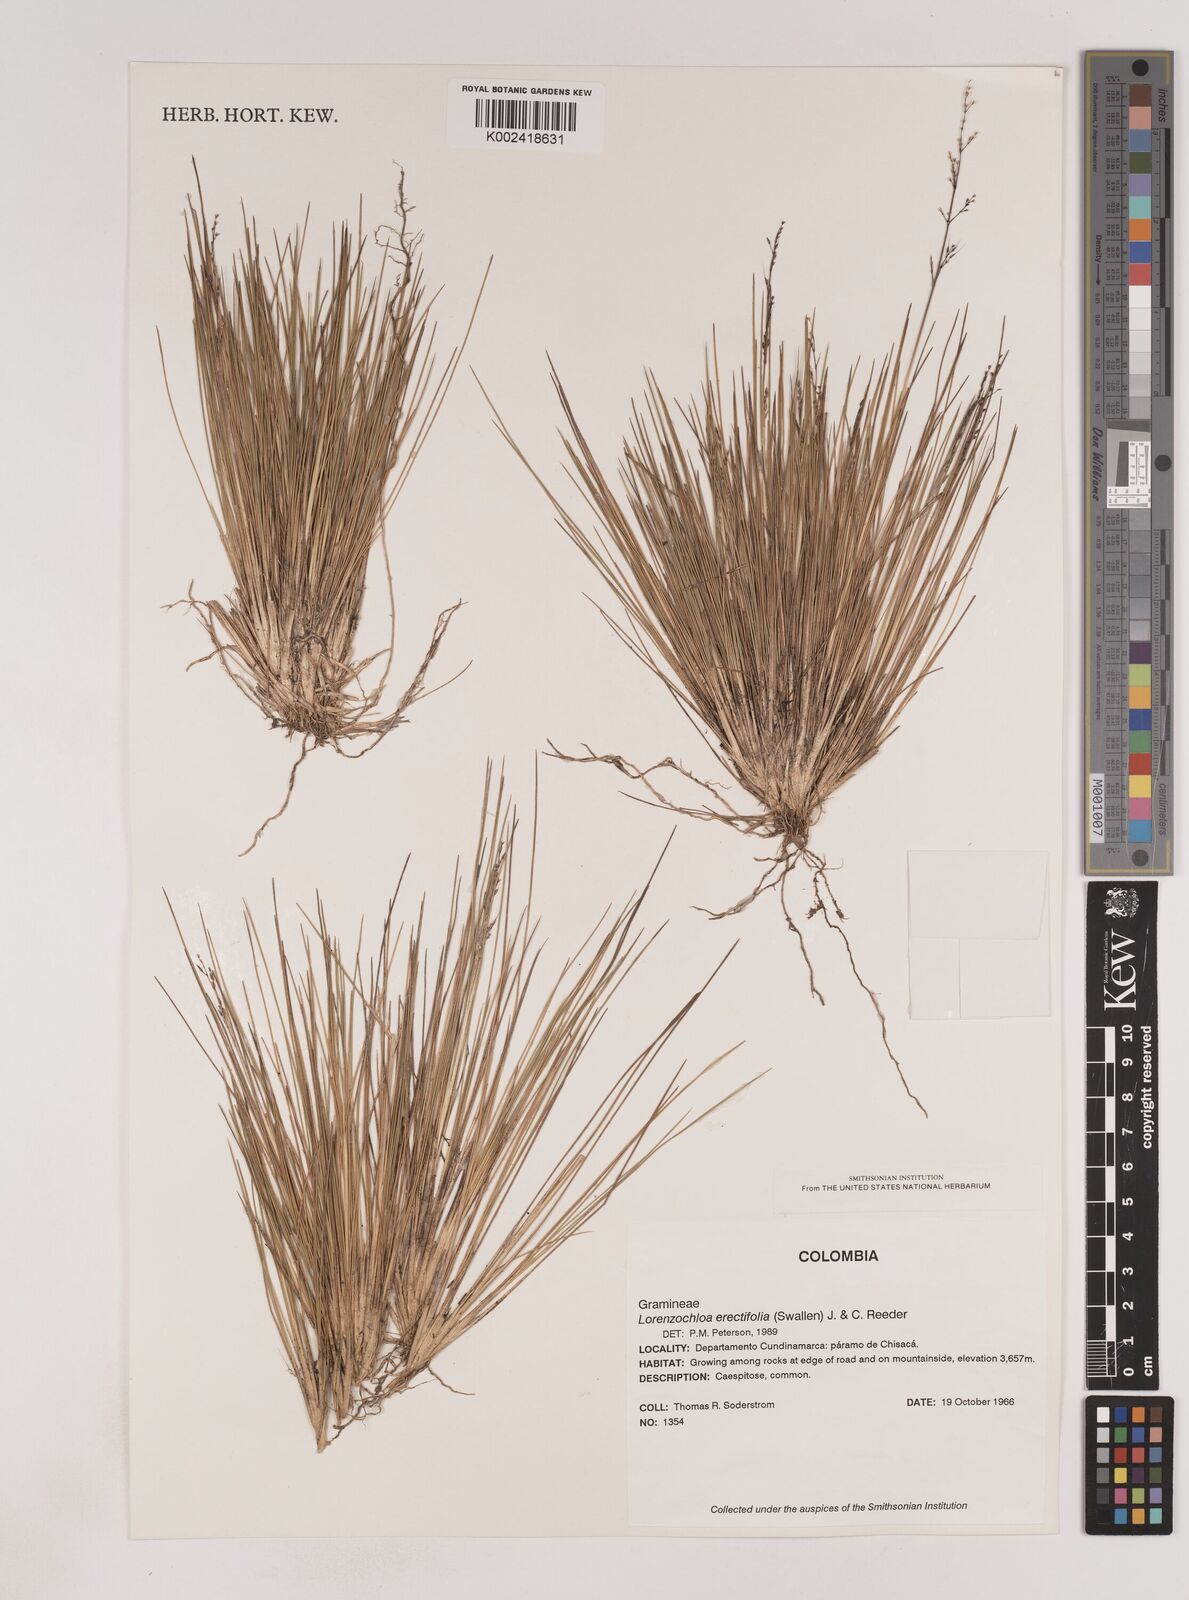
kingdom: Plantae
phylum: Tracheophyta
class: Liliopsida
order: Poales
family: Poaceae
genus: Lorenzochloa
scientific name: Lorenzochloa erectifolia
